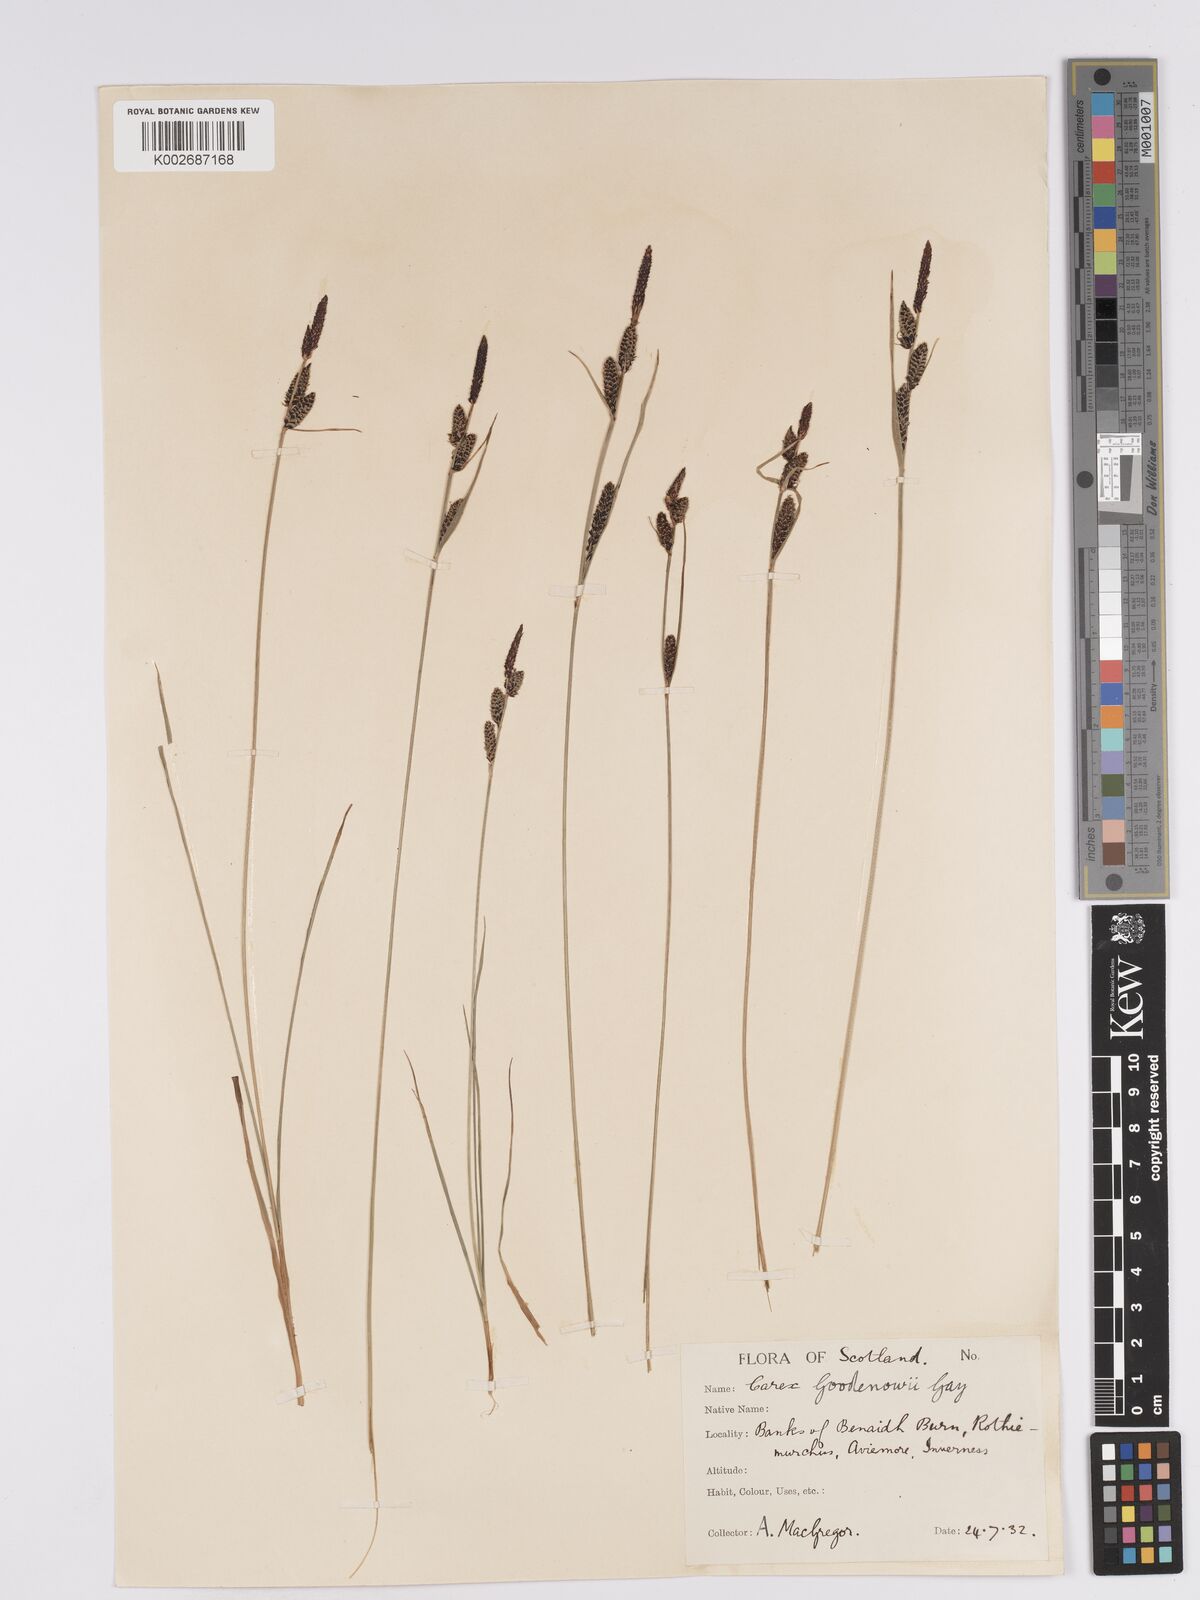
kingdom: Plantae
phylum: Tracheophyta
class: Liliopsida
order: Poales
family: Cyperaceae
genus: Carex
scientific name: Carex nigra
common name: Common sedge
